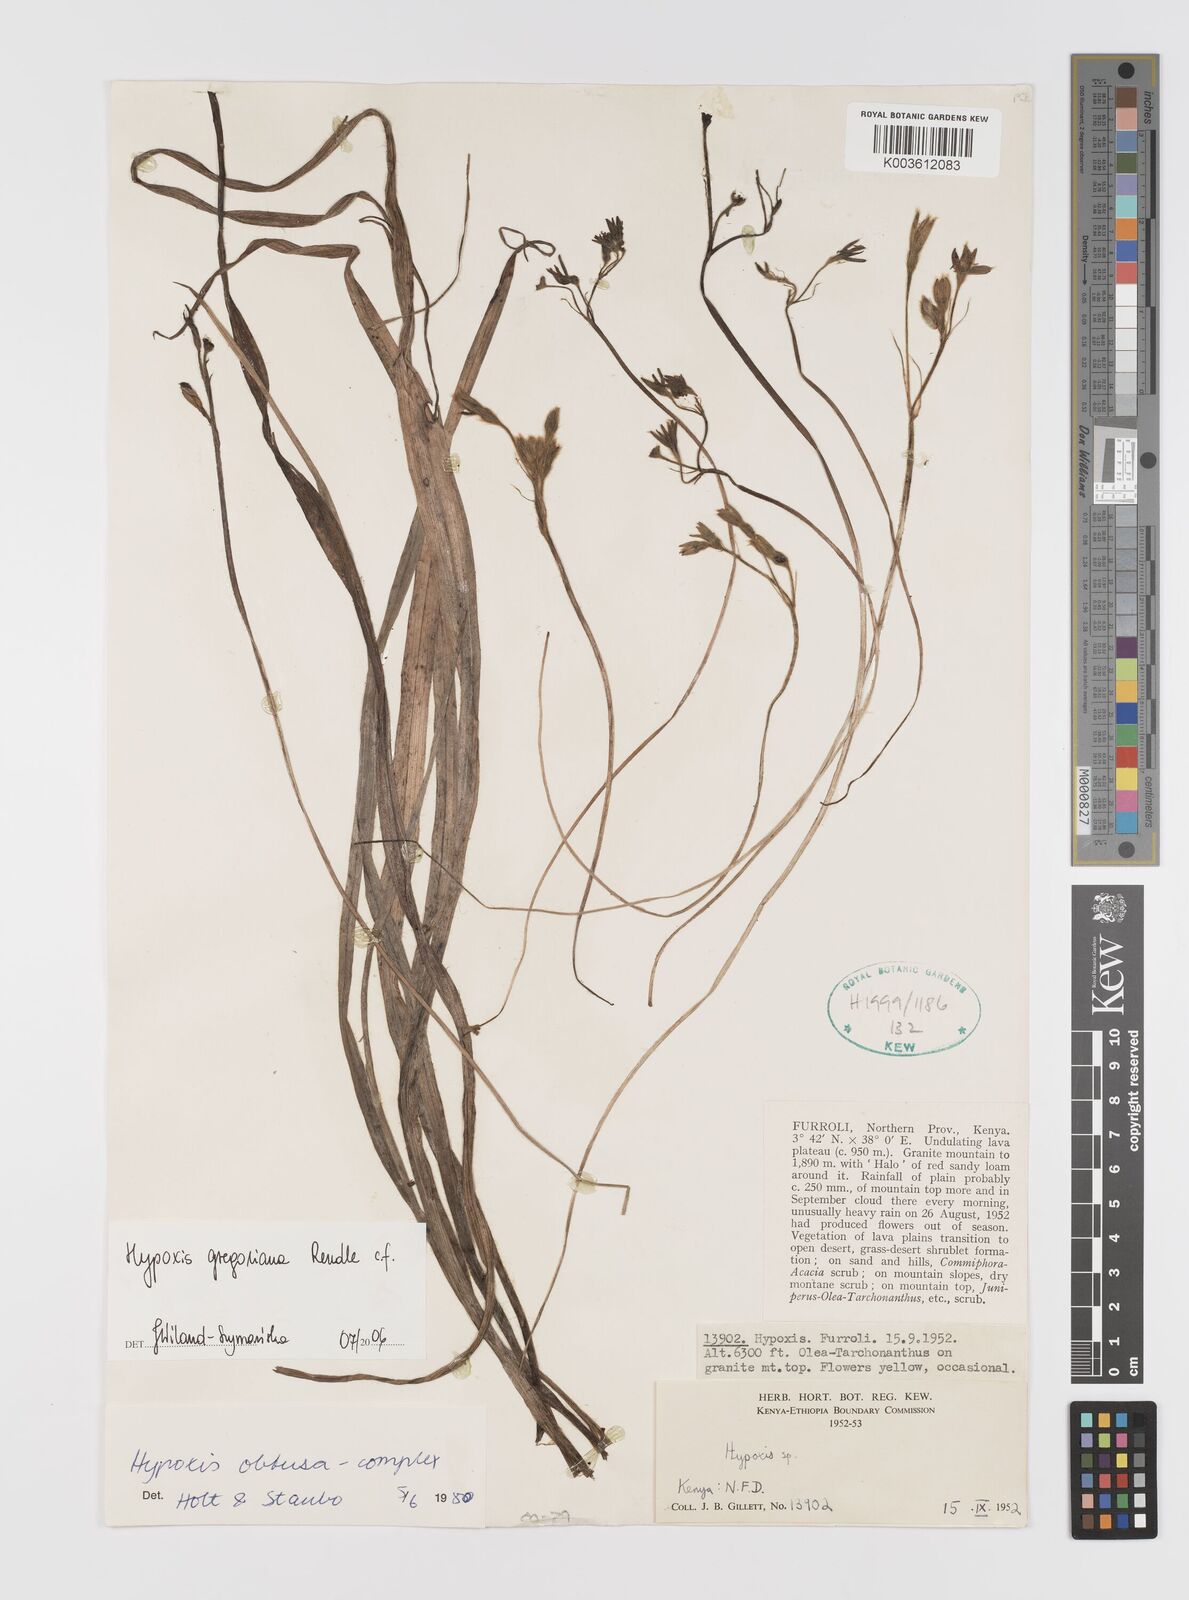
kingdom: Plantae
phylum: Tracheophyta
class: Liliopsida
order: Asparagales
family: Hypoxidaceae
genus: Hypoxis
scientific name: Hypoxis gregoriana
